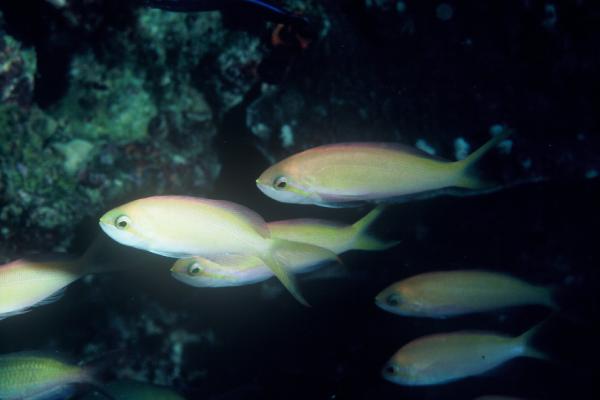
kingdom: Animalia
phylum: Chordata
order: Perciformes
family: Serranidae
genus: Nemanthias
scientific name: Nemanthias carberryi
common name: Threadfin anthias
